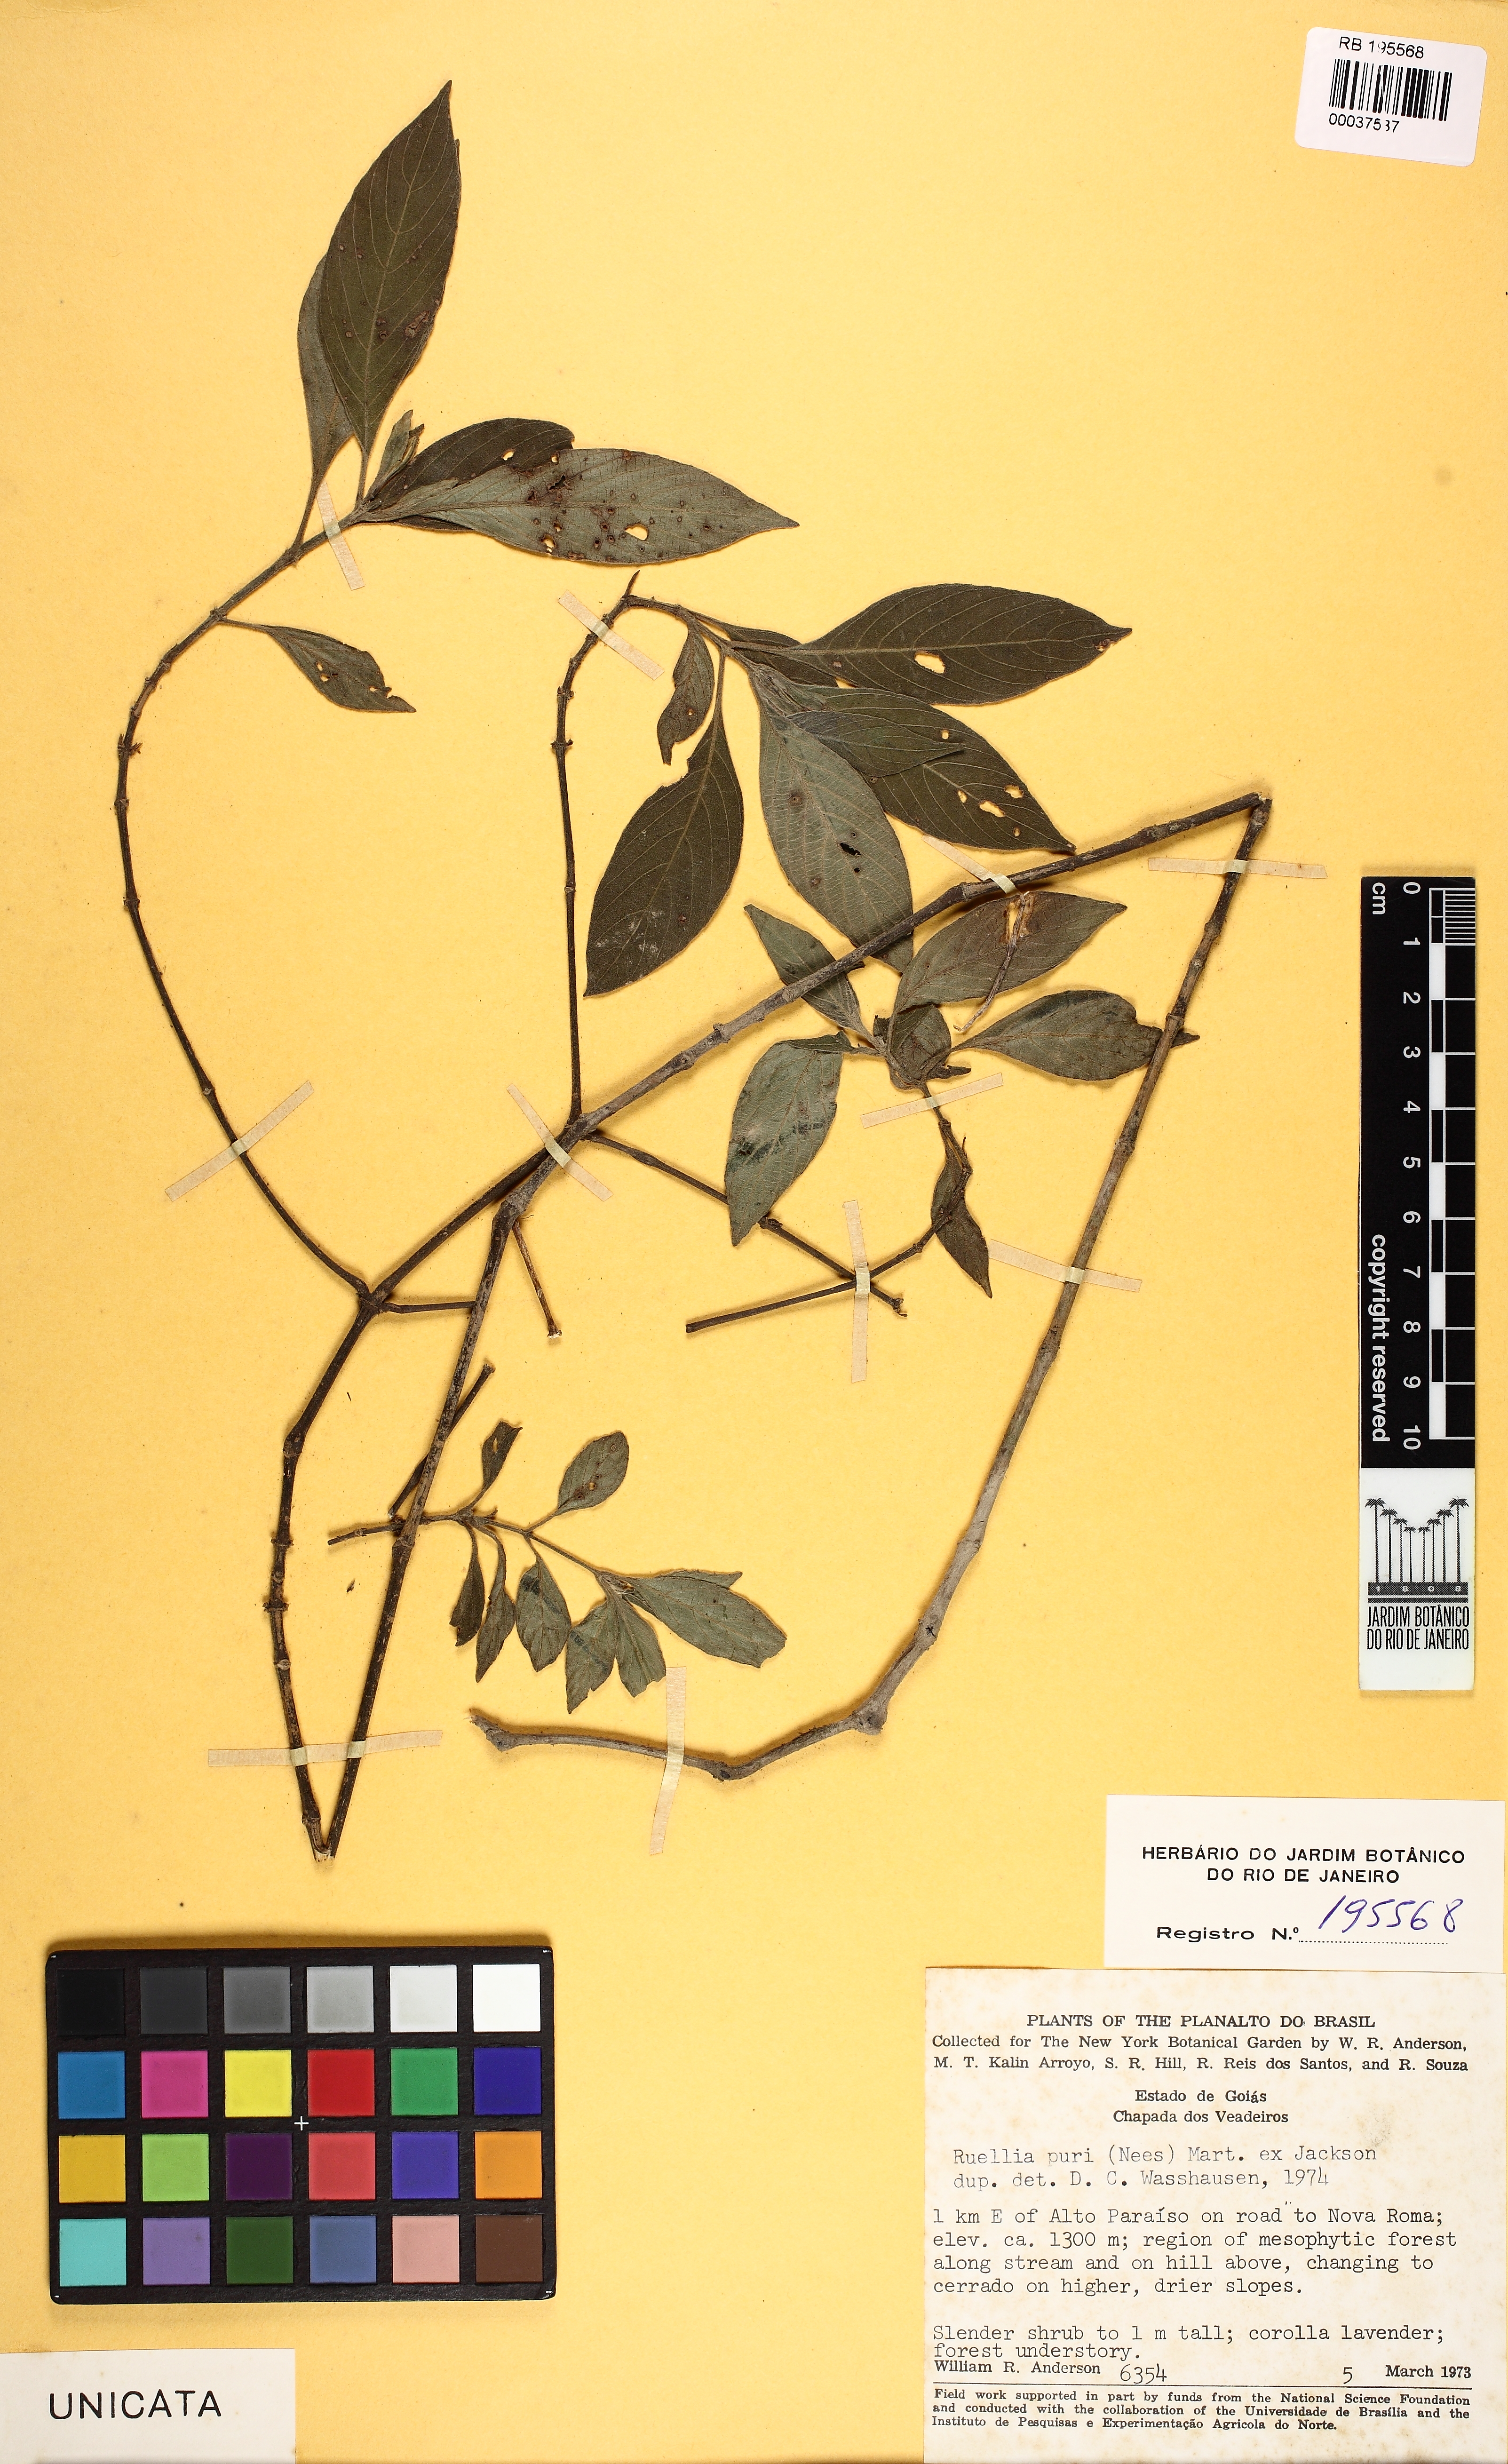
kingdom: Plantae
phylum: Tracheophyta
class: Magnoliopsida
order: Lamiales
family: Acanthaceae
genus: Ruellia
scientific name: Ruellia jussieuoides
